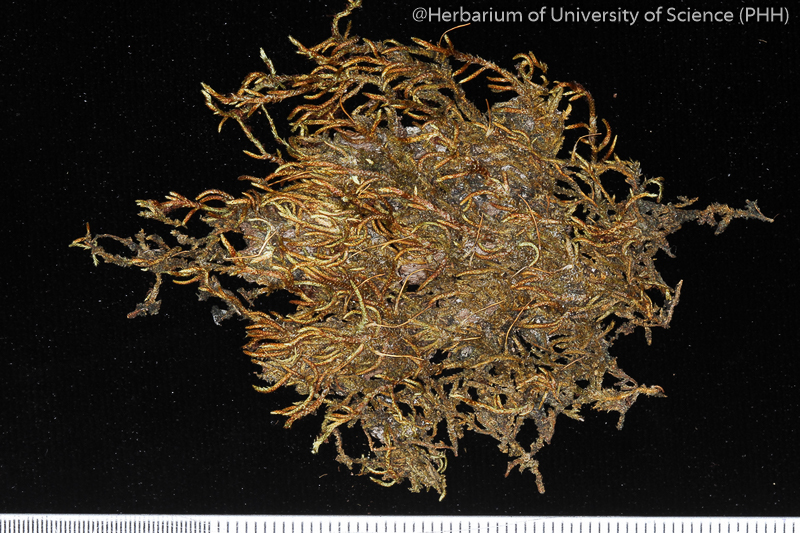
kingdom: Plantae
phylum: Bryophyta
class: Bryopsida
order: Hypnales
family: Entodontaceae
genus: Erythrodontium
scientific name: Erythrodontium julaceum
